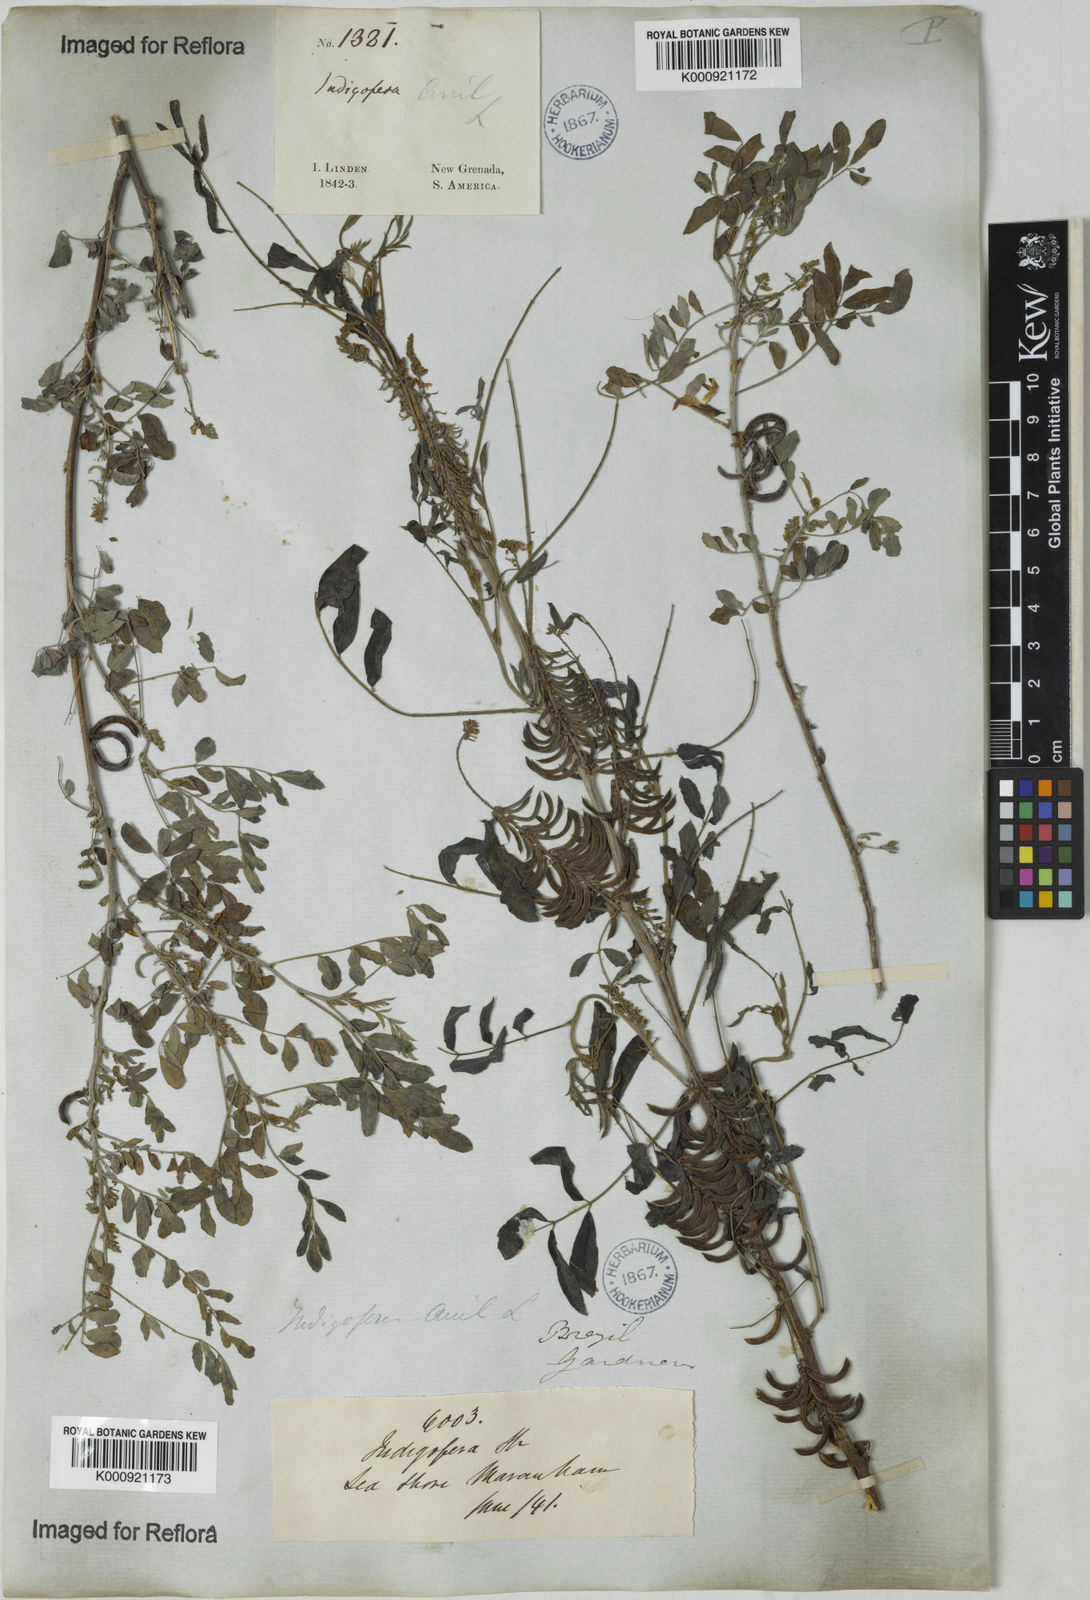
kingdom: Plantae
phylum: Tracheophyta
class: Magnoliopsida
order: Fabales
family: Fabaceae
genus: Indigofera
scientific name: Indigofera suffruticosa
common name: Anil de pasto
